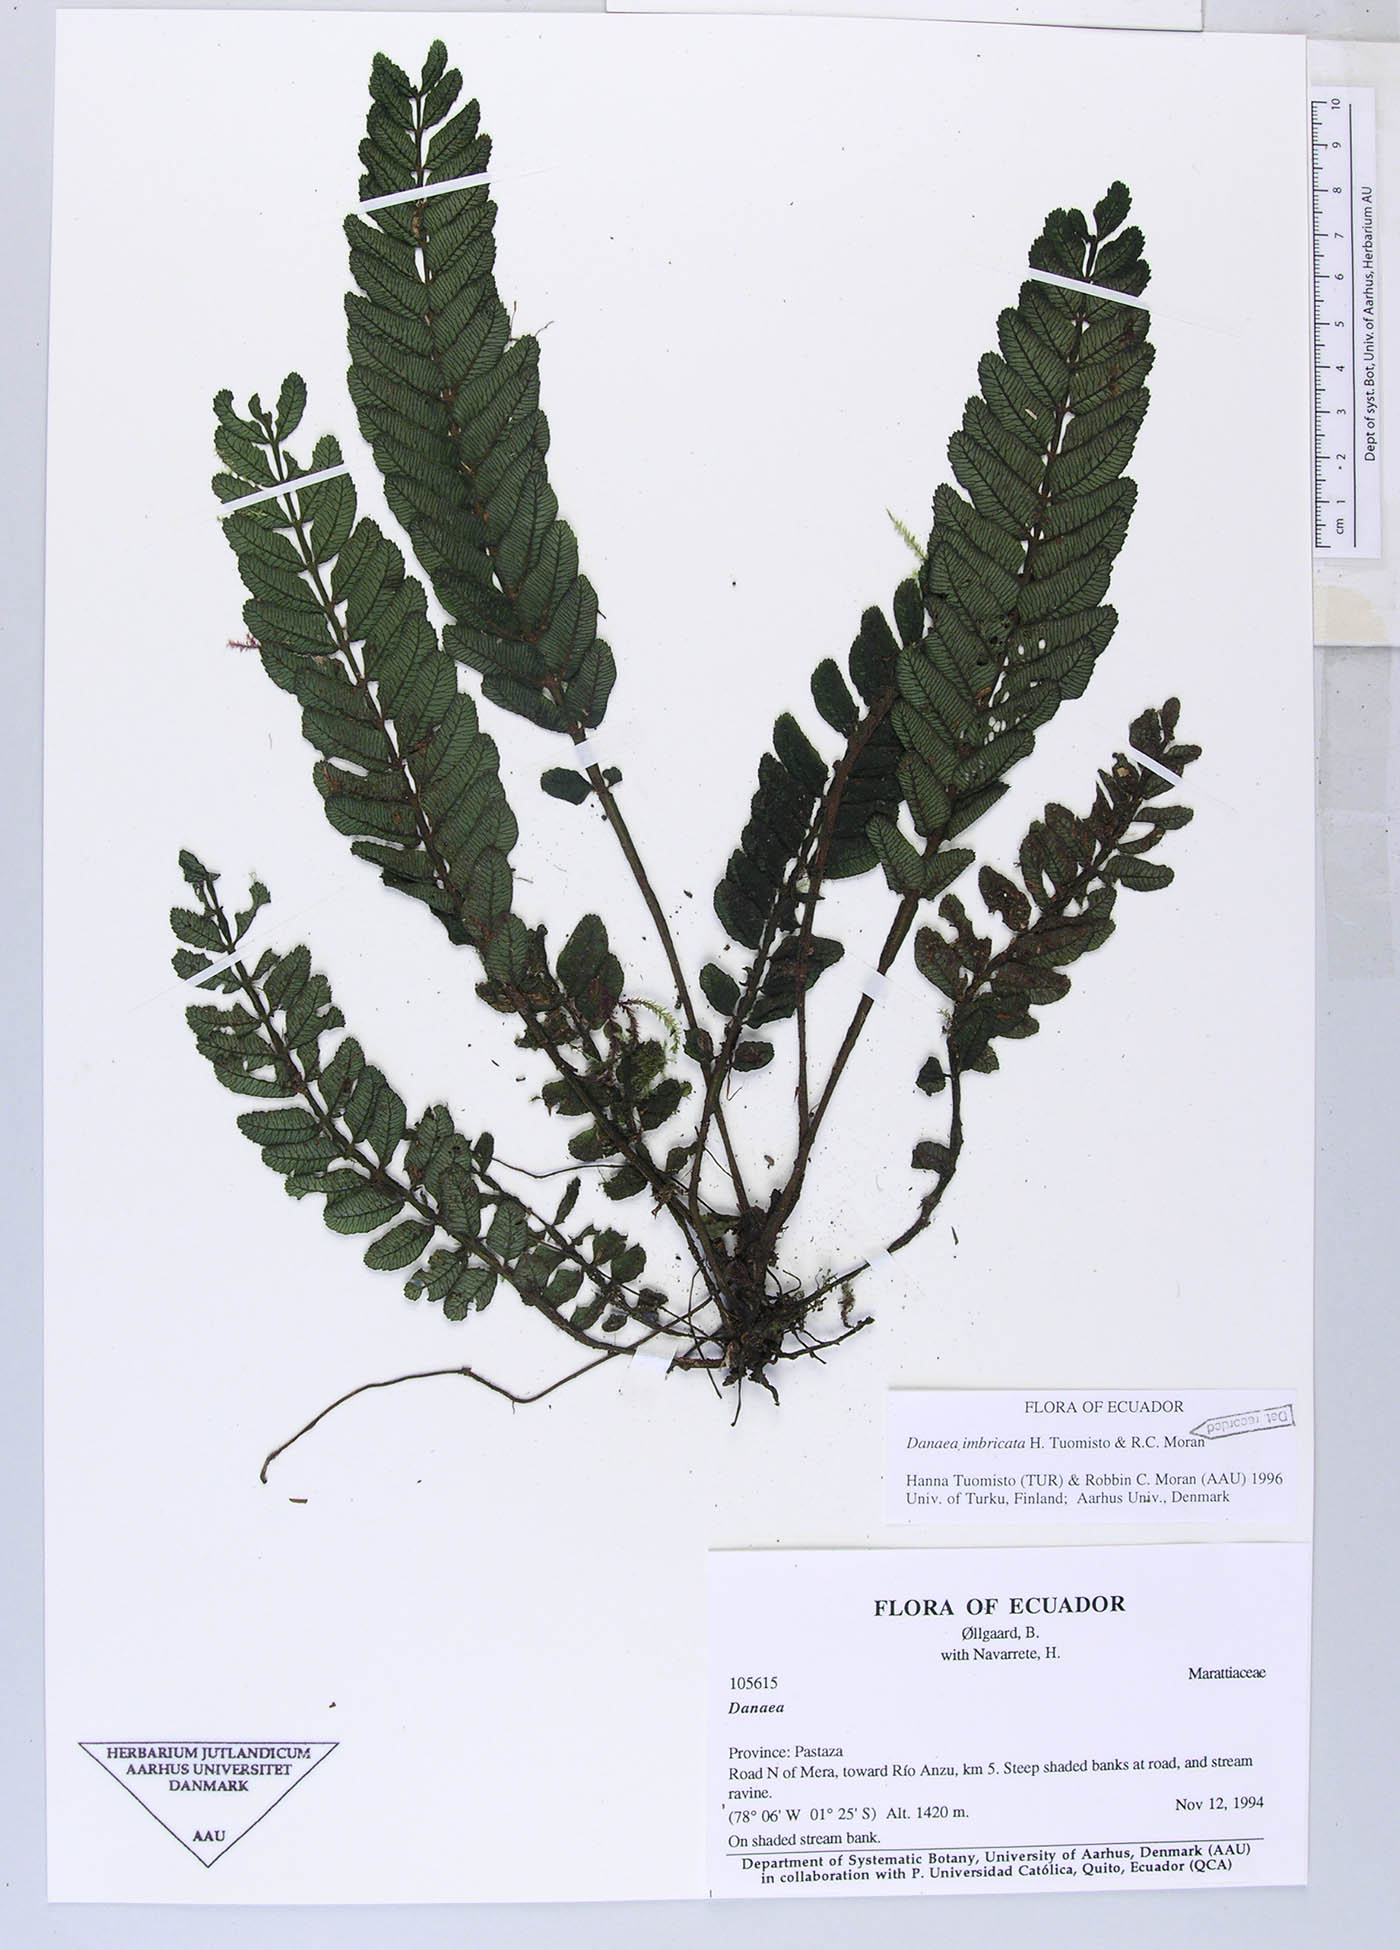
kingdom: Plantae
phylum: Tracheophyta
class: Polypodiopsida
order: Marattiales
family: Marattiaceae
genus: Danaea
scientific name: Danaea
